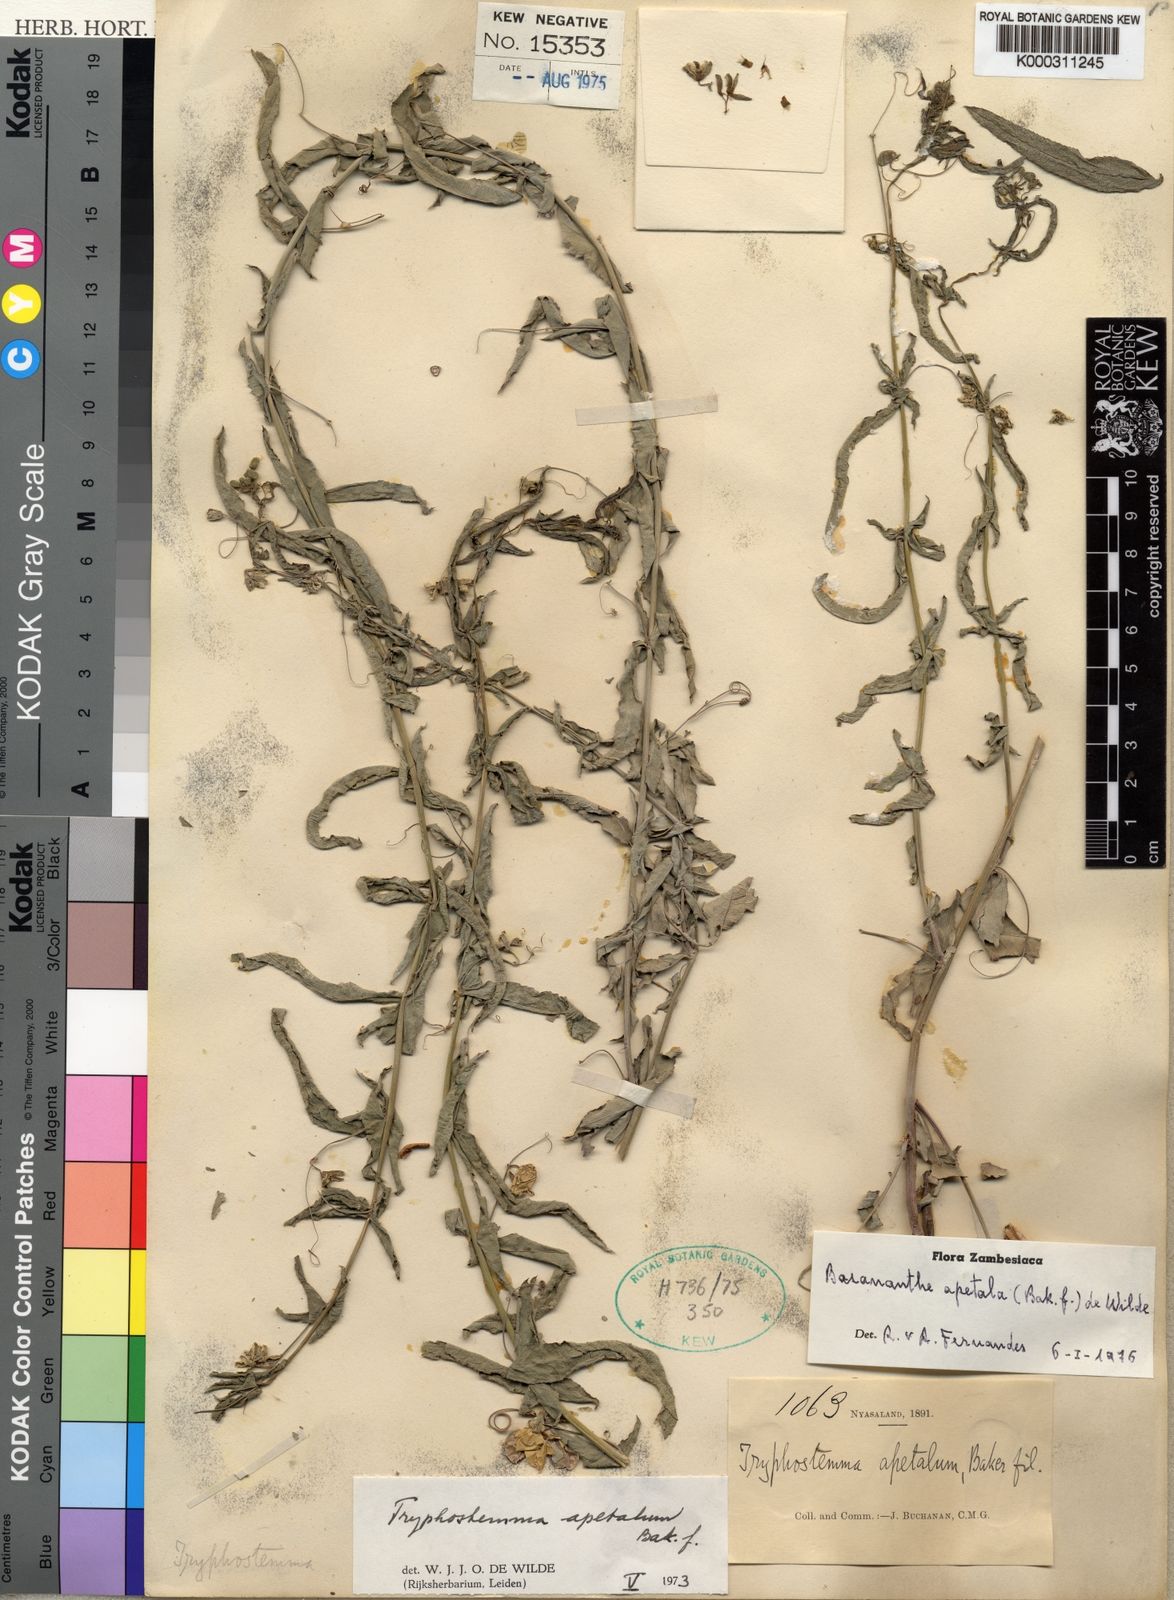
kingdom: Plantae
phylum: Tracheophyta
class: Magnoliopsida
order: Malpighiales
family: Passifloraceae
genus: Basananthe
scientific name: Basananthe apetala
